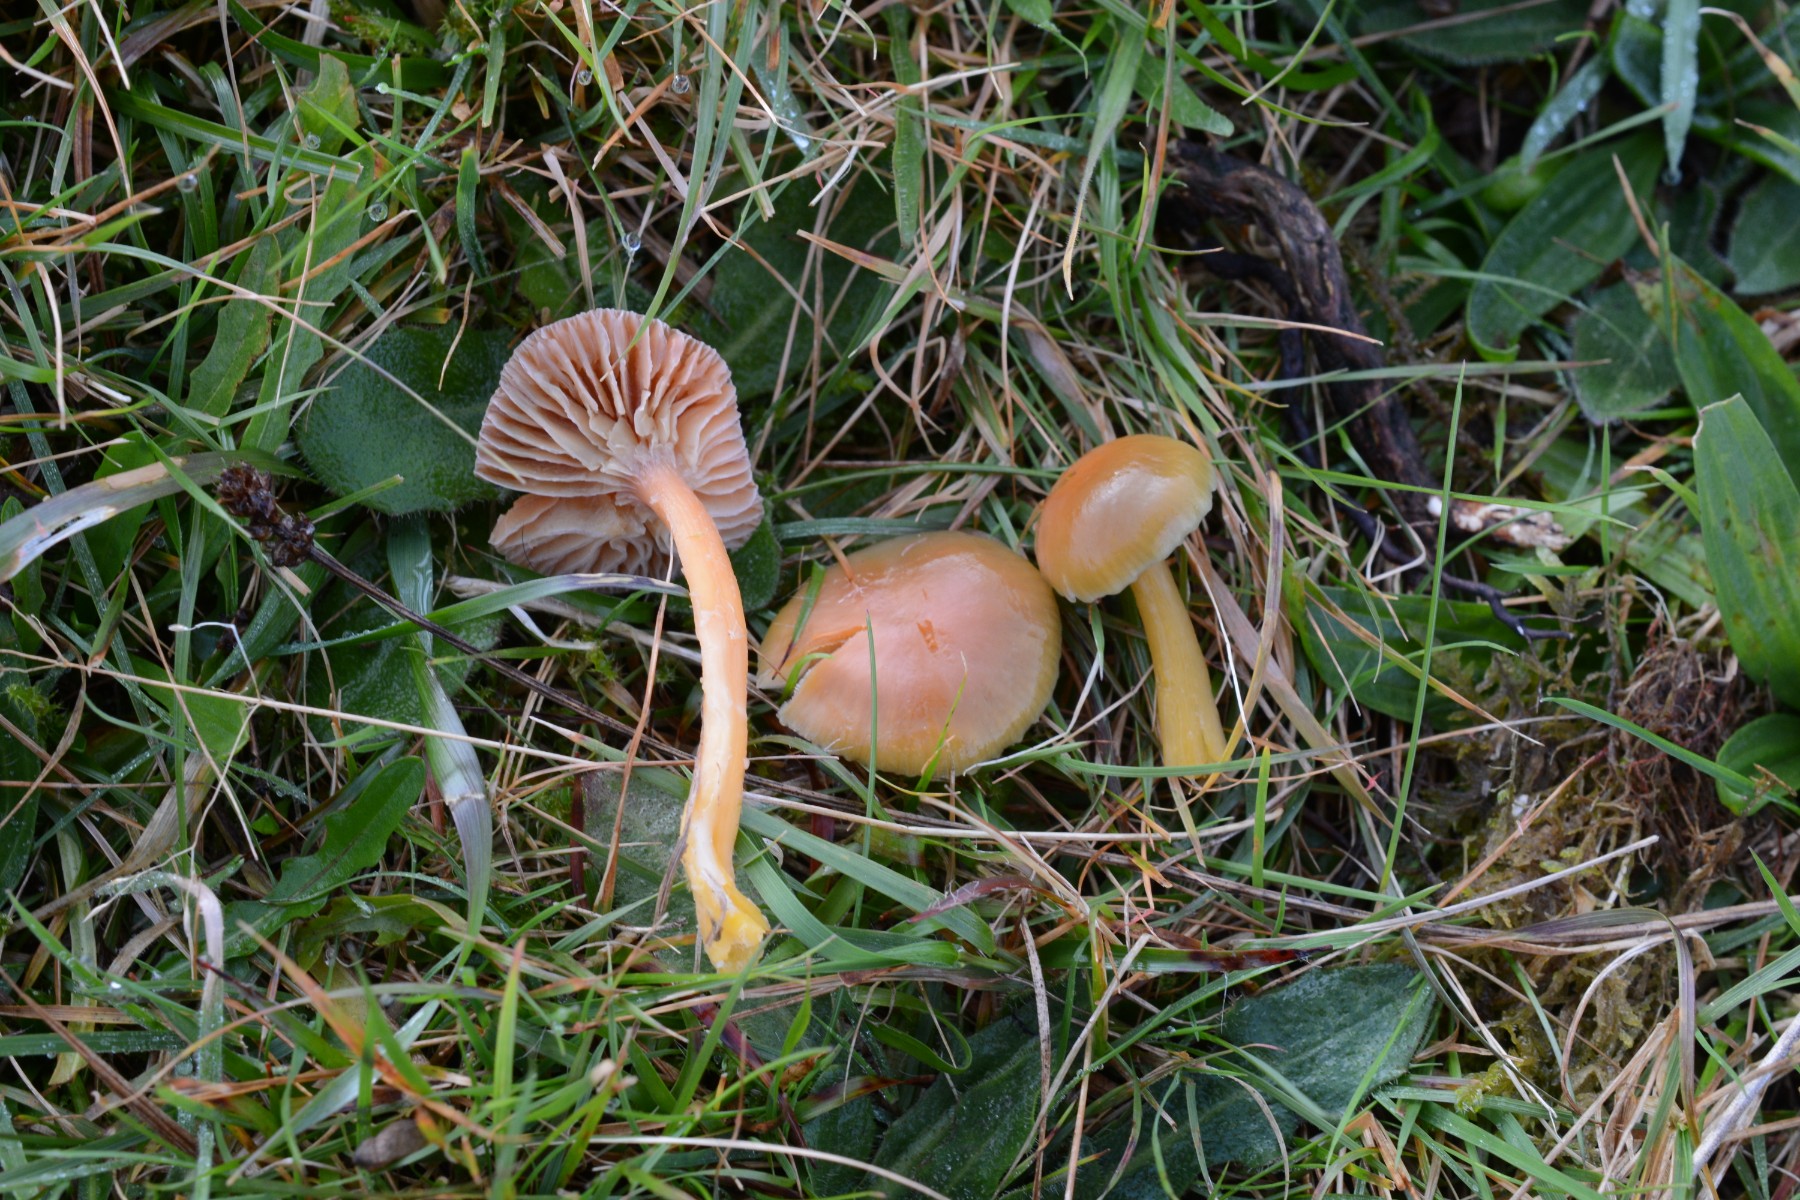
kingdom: Fungi
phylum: Basidiomycota
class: Agaricomycetes
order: Agaricales
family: Hygrophoraceae
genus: Gliophorus
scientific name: Gliophorus laetus
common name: brusk-vokshat
